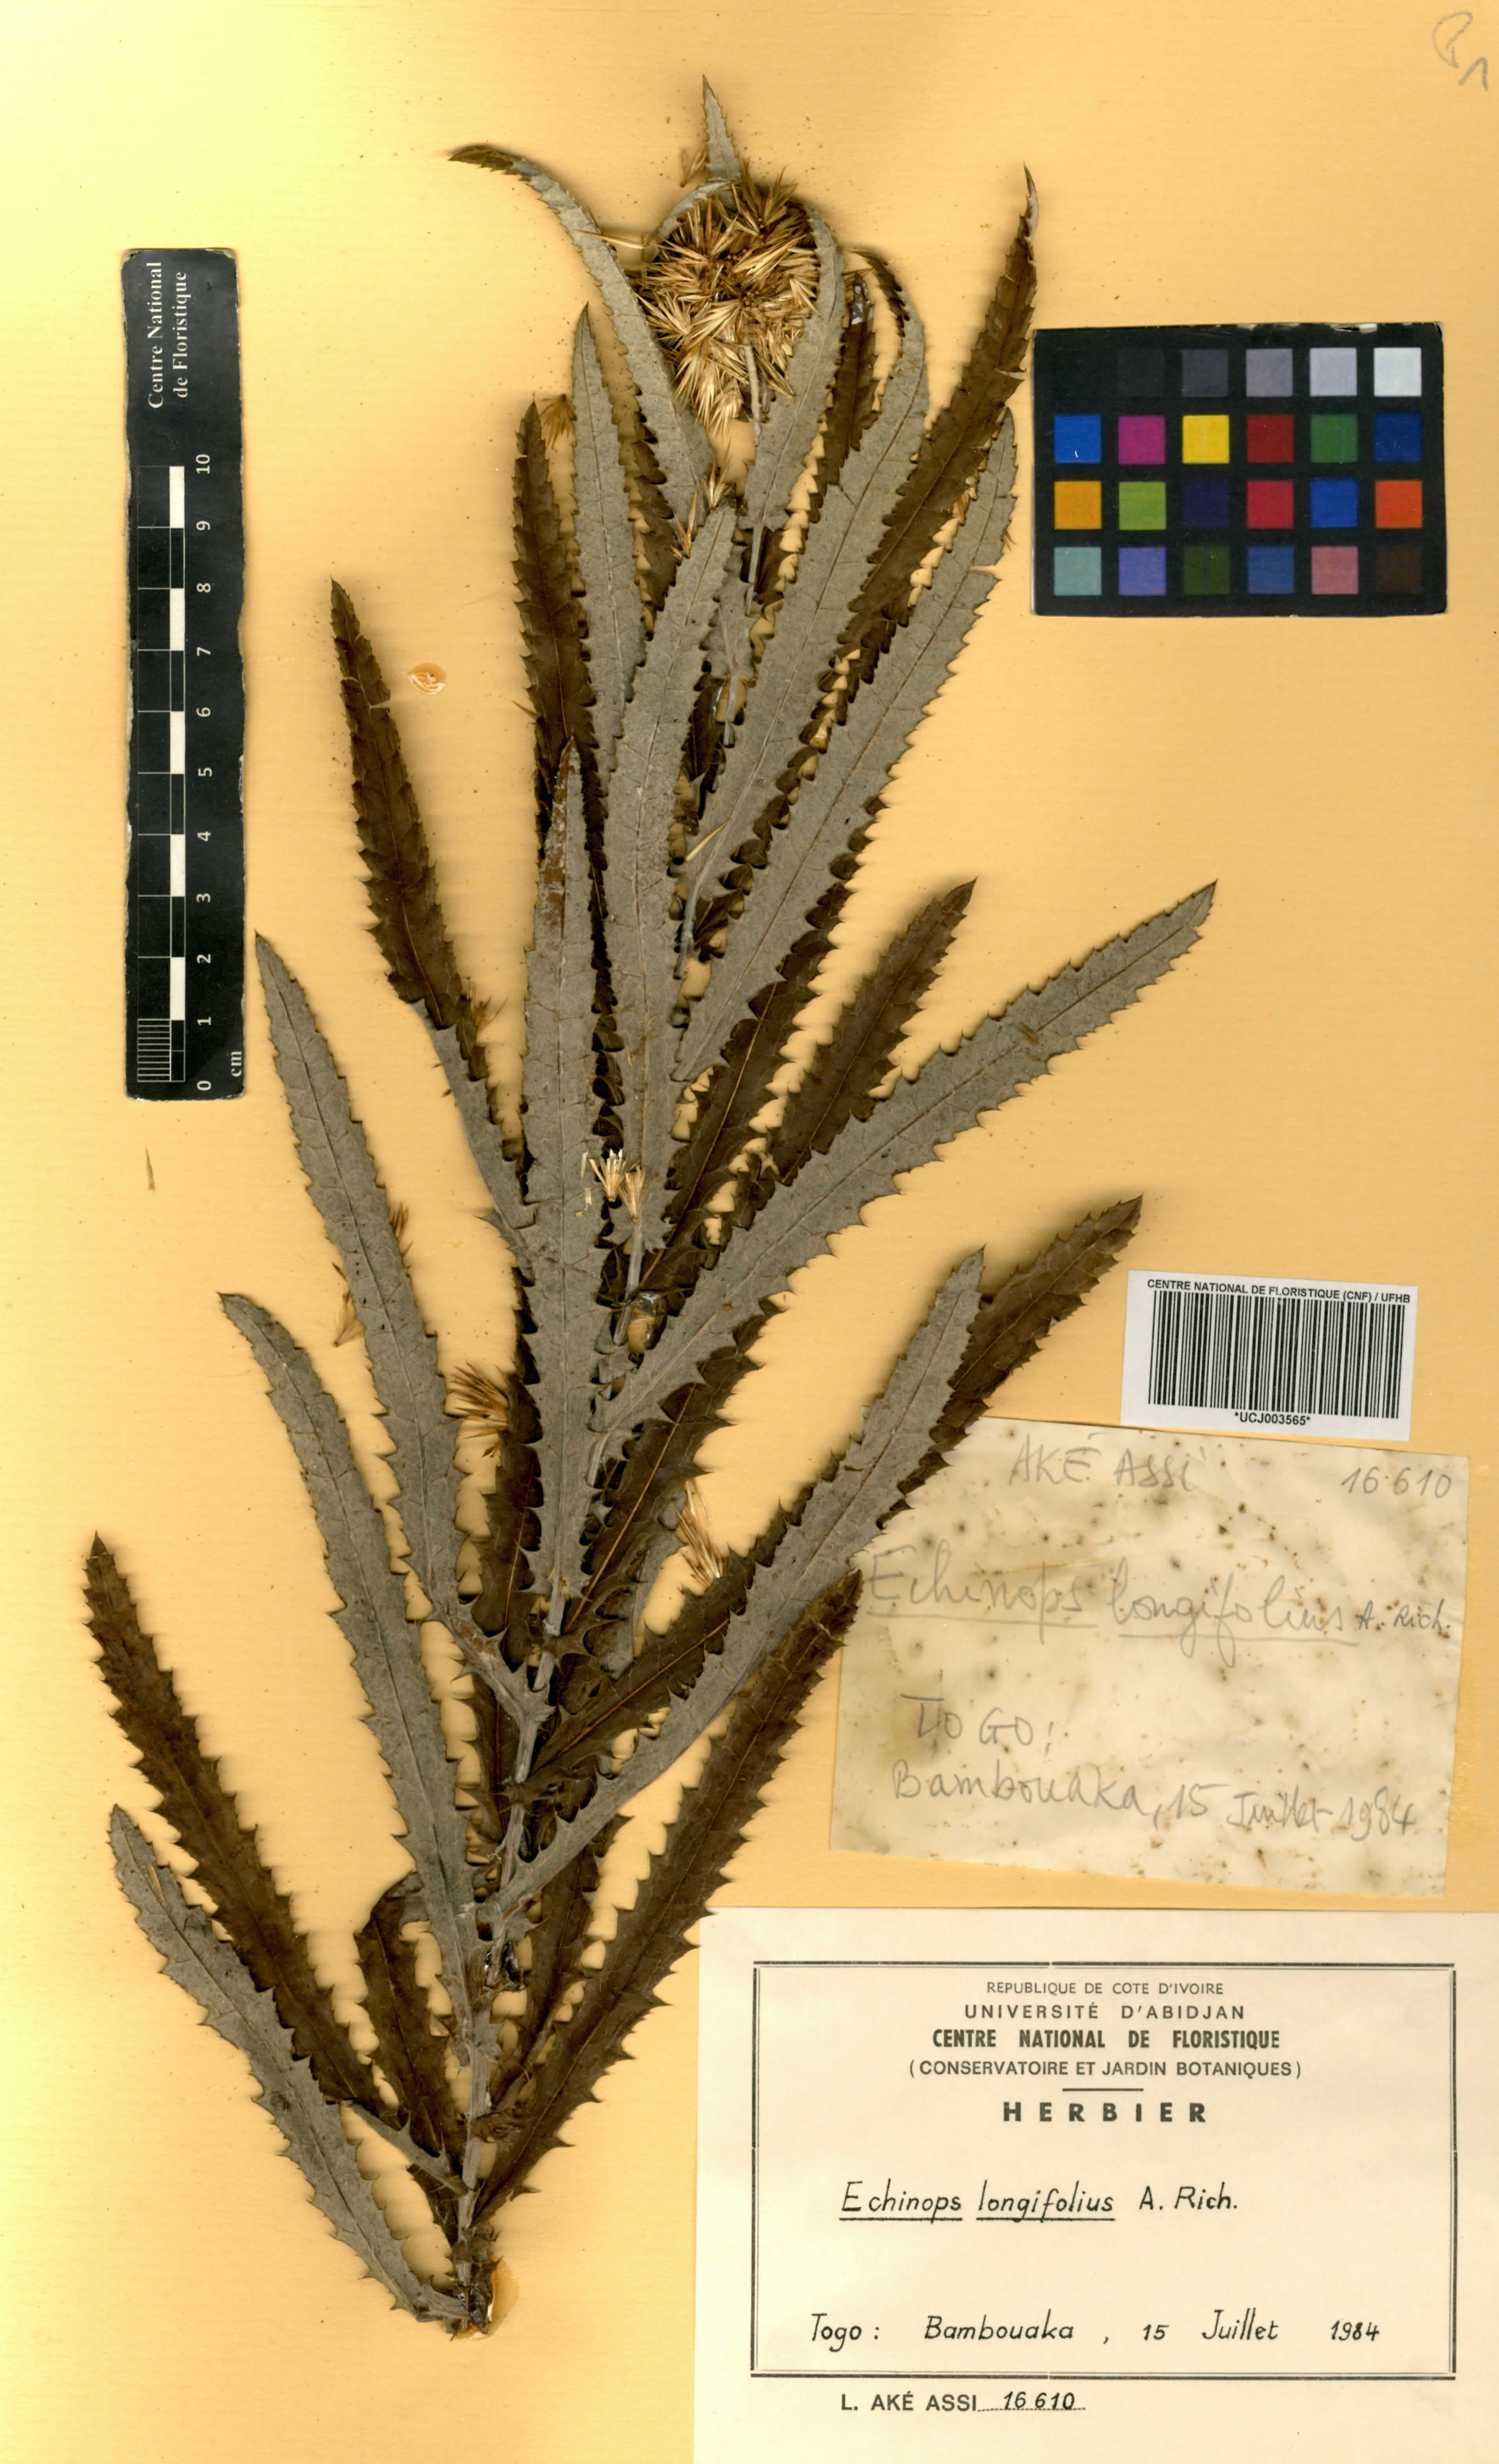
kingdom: Plantae
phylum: Tracheophyta
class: Magnoliopsida
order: Asterales
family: Asteraceae
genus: Echinops
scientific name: Echinops longifolius
